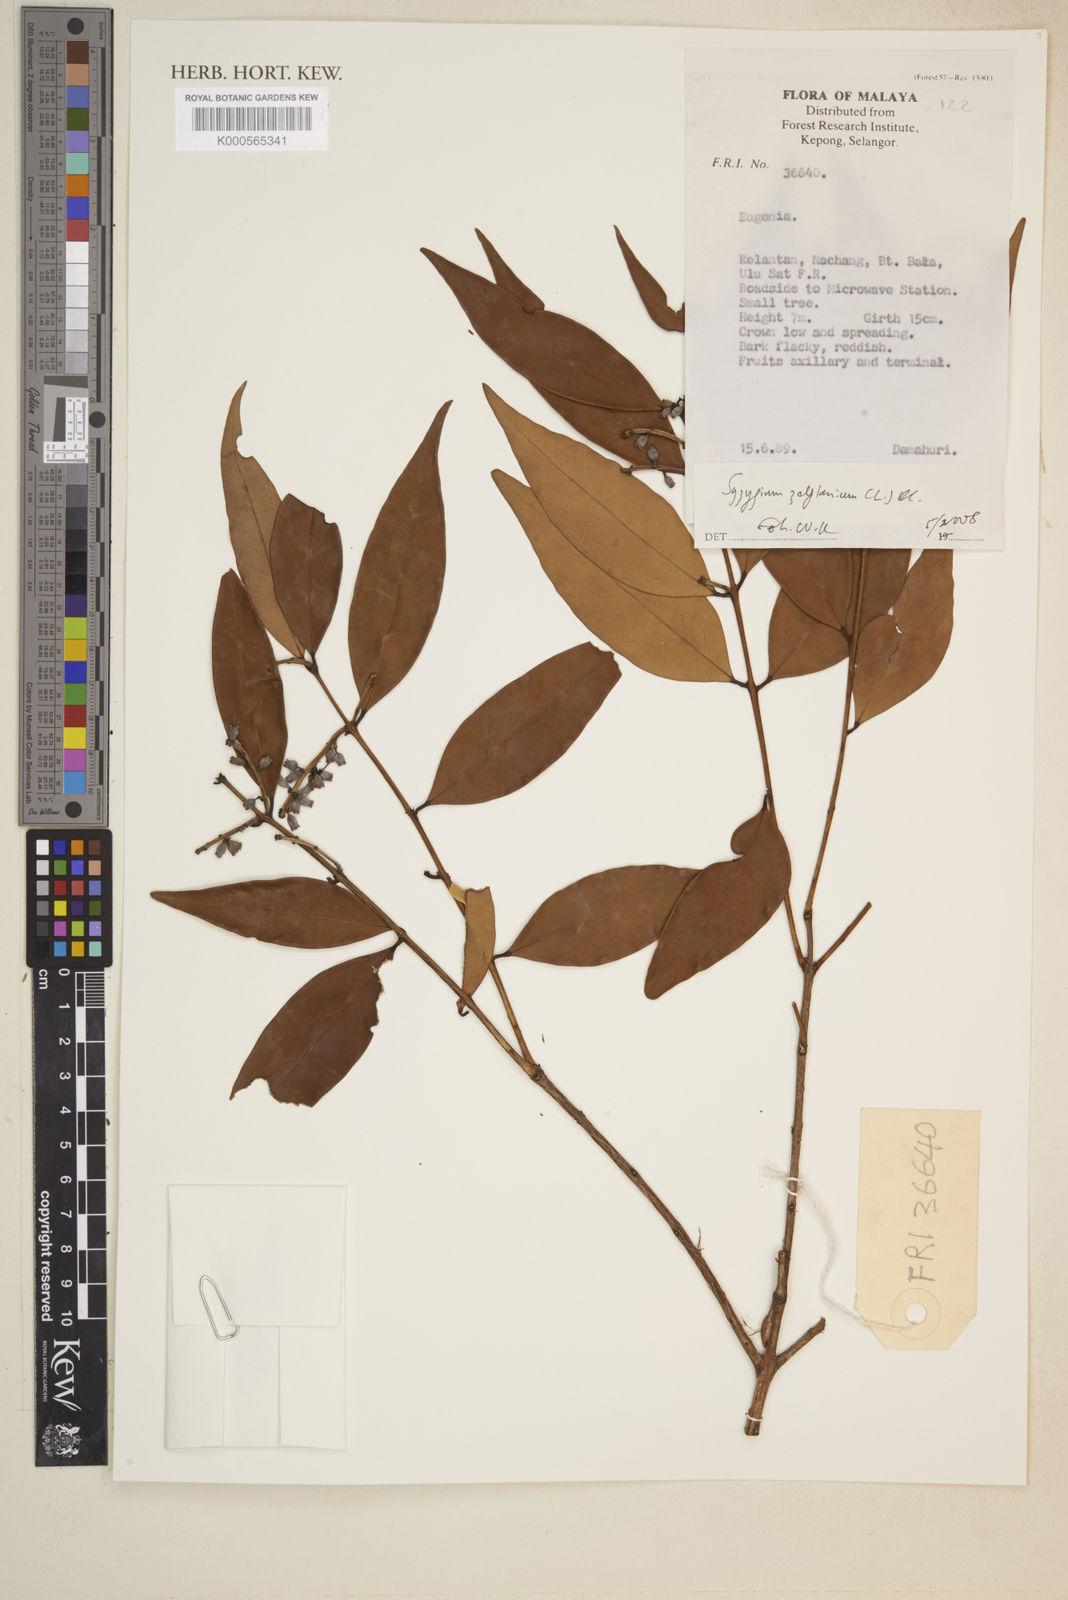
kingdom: Plantae
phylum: Tracheophyta
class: Magnoliopsida
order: Myrtales
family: Myrtaceae
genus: Syzygium
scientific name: Syzygium zeylanicum
